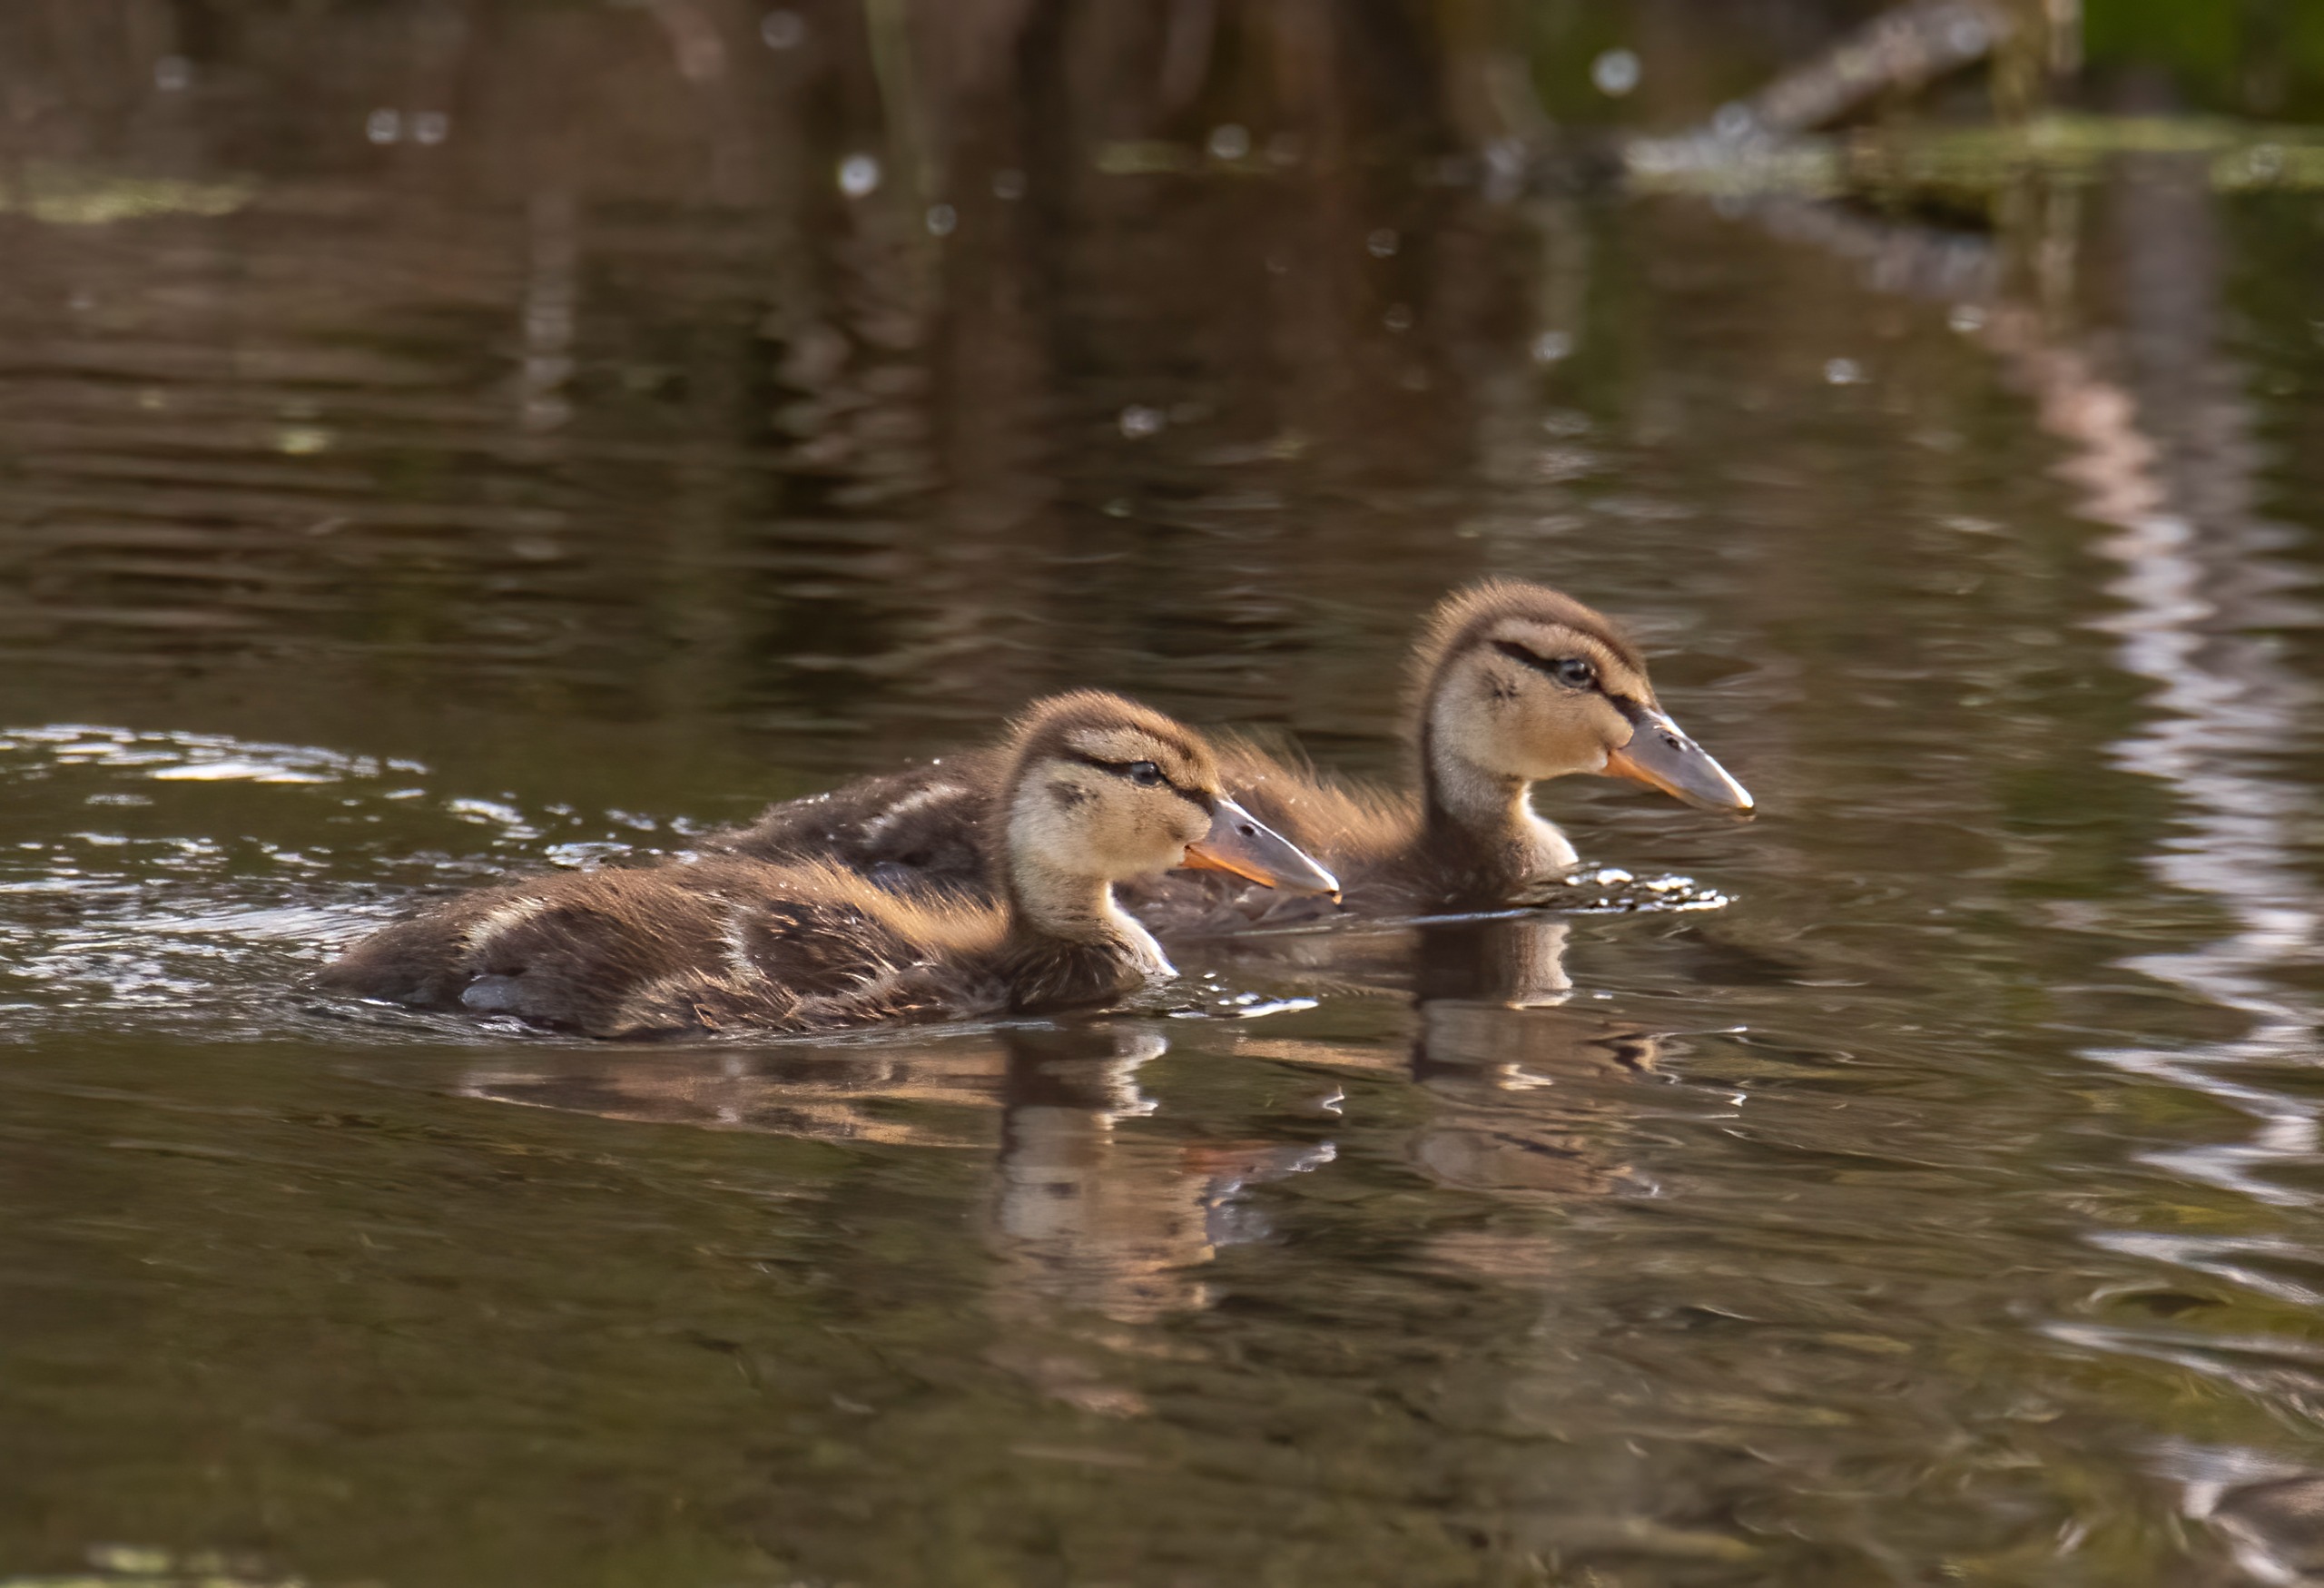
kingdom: Animalia
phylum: Chordata
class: Aves
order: Anseriformes
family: Anatidae
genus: Anas
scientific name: Anas platyrhynchos
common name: Gråand
